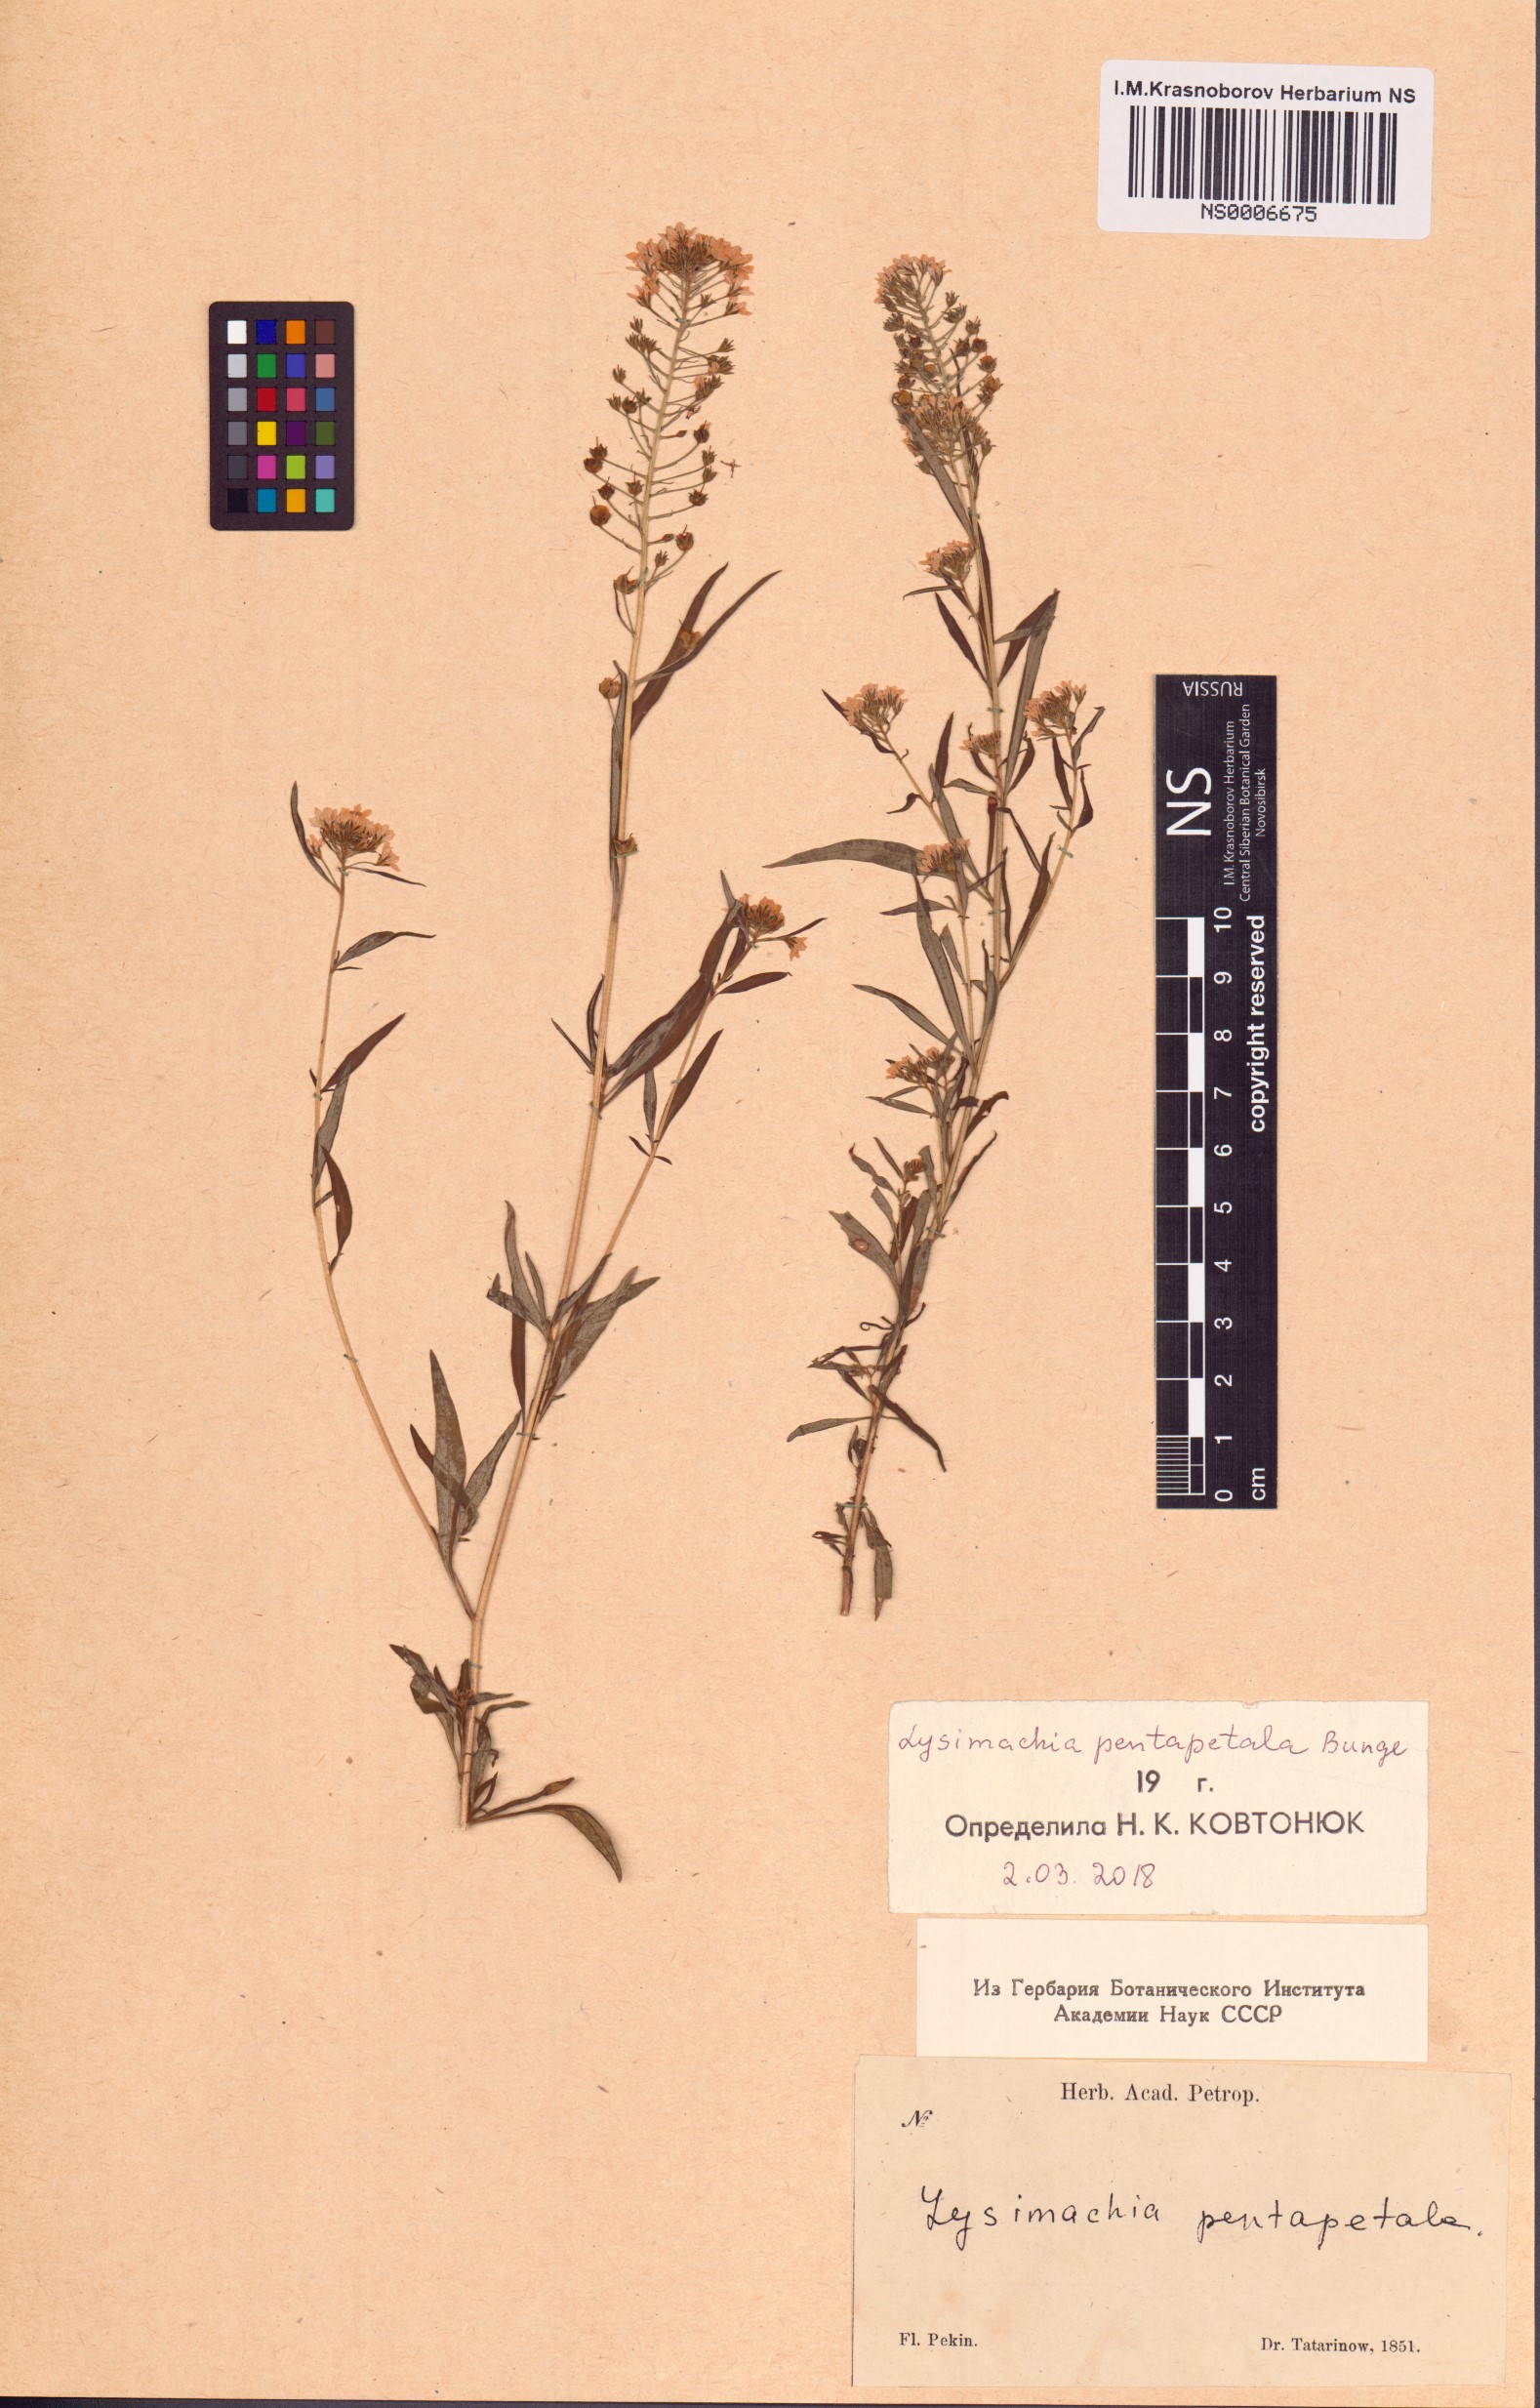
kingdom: Plantae
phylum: Tracheophyta
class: Magnoliopsida
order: Ericales
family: Primulaceae
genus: Lysimachia
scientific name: Lysimachia pentapetala
